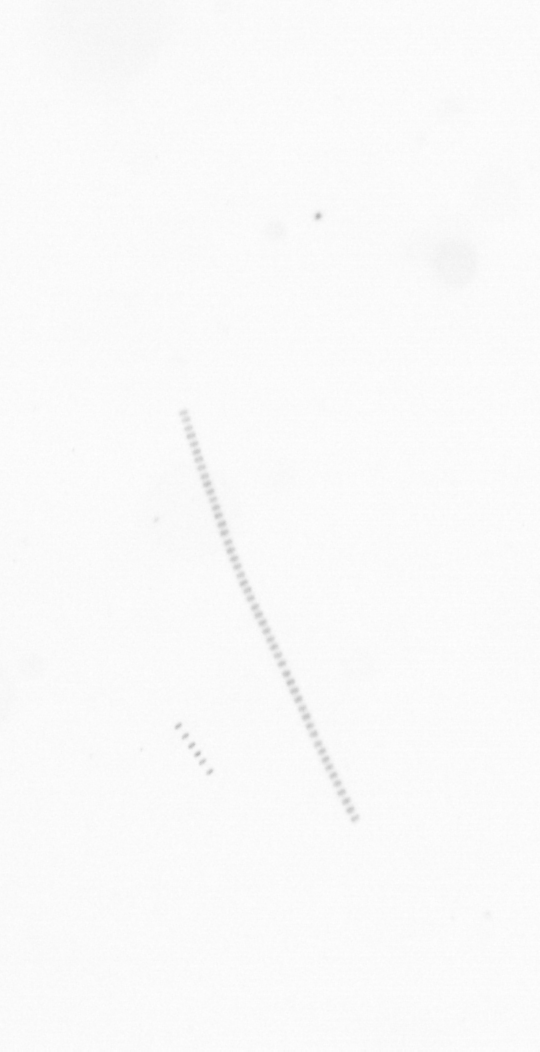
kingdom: Chromista
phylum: Ochrophyta
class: Bacillariophyceae
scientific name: Bacillariophyceae
